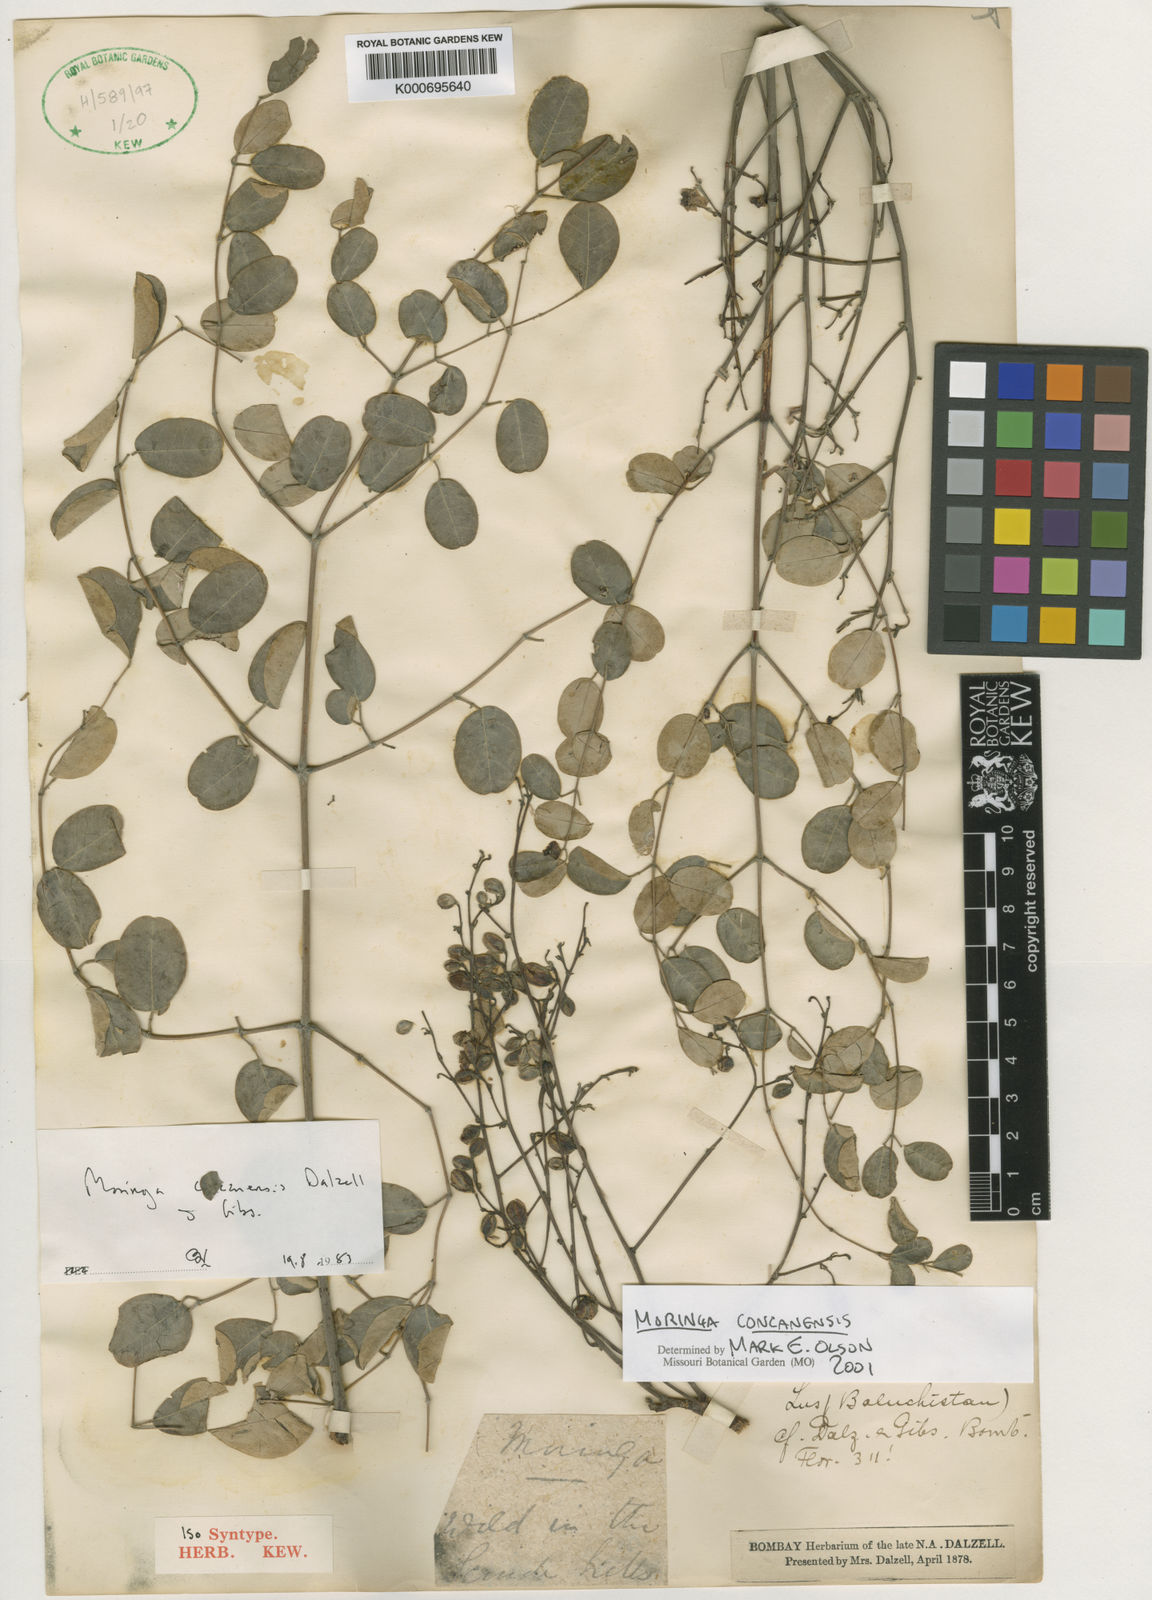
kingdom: Plantae
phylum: Tracheophyta
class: Magnoliopsida
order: Brassicales
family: Moringaceae
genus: Moringa
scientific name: Moringa
